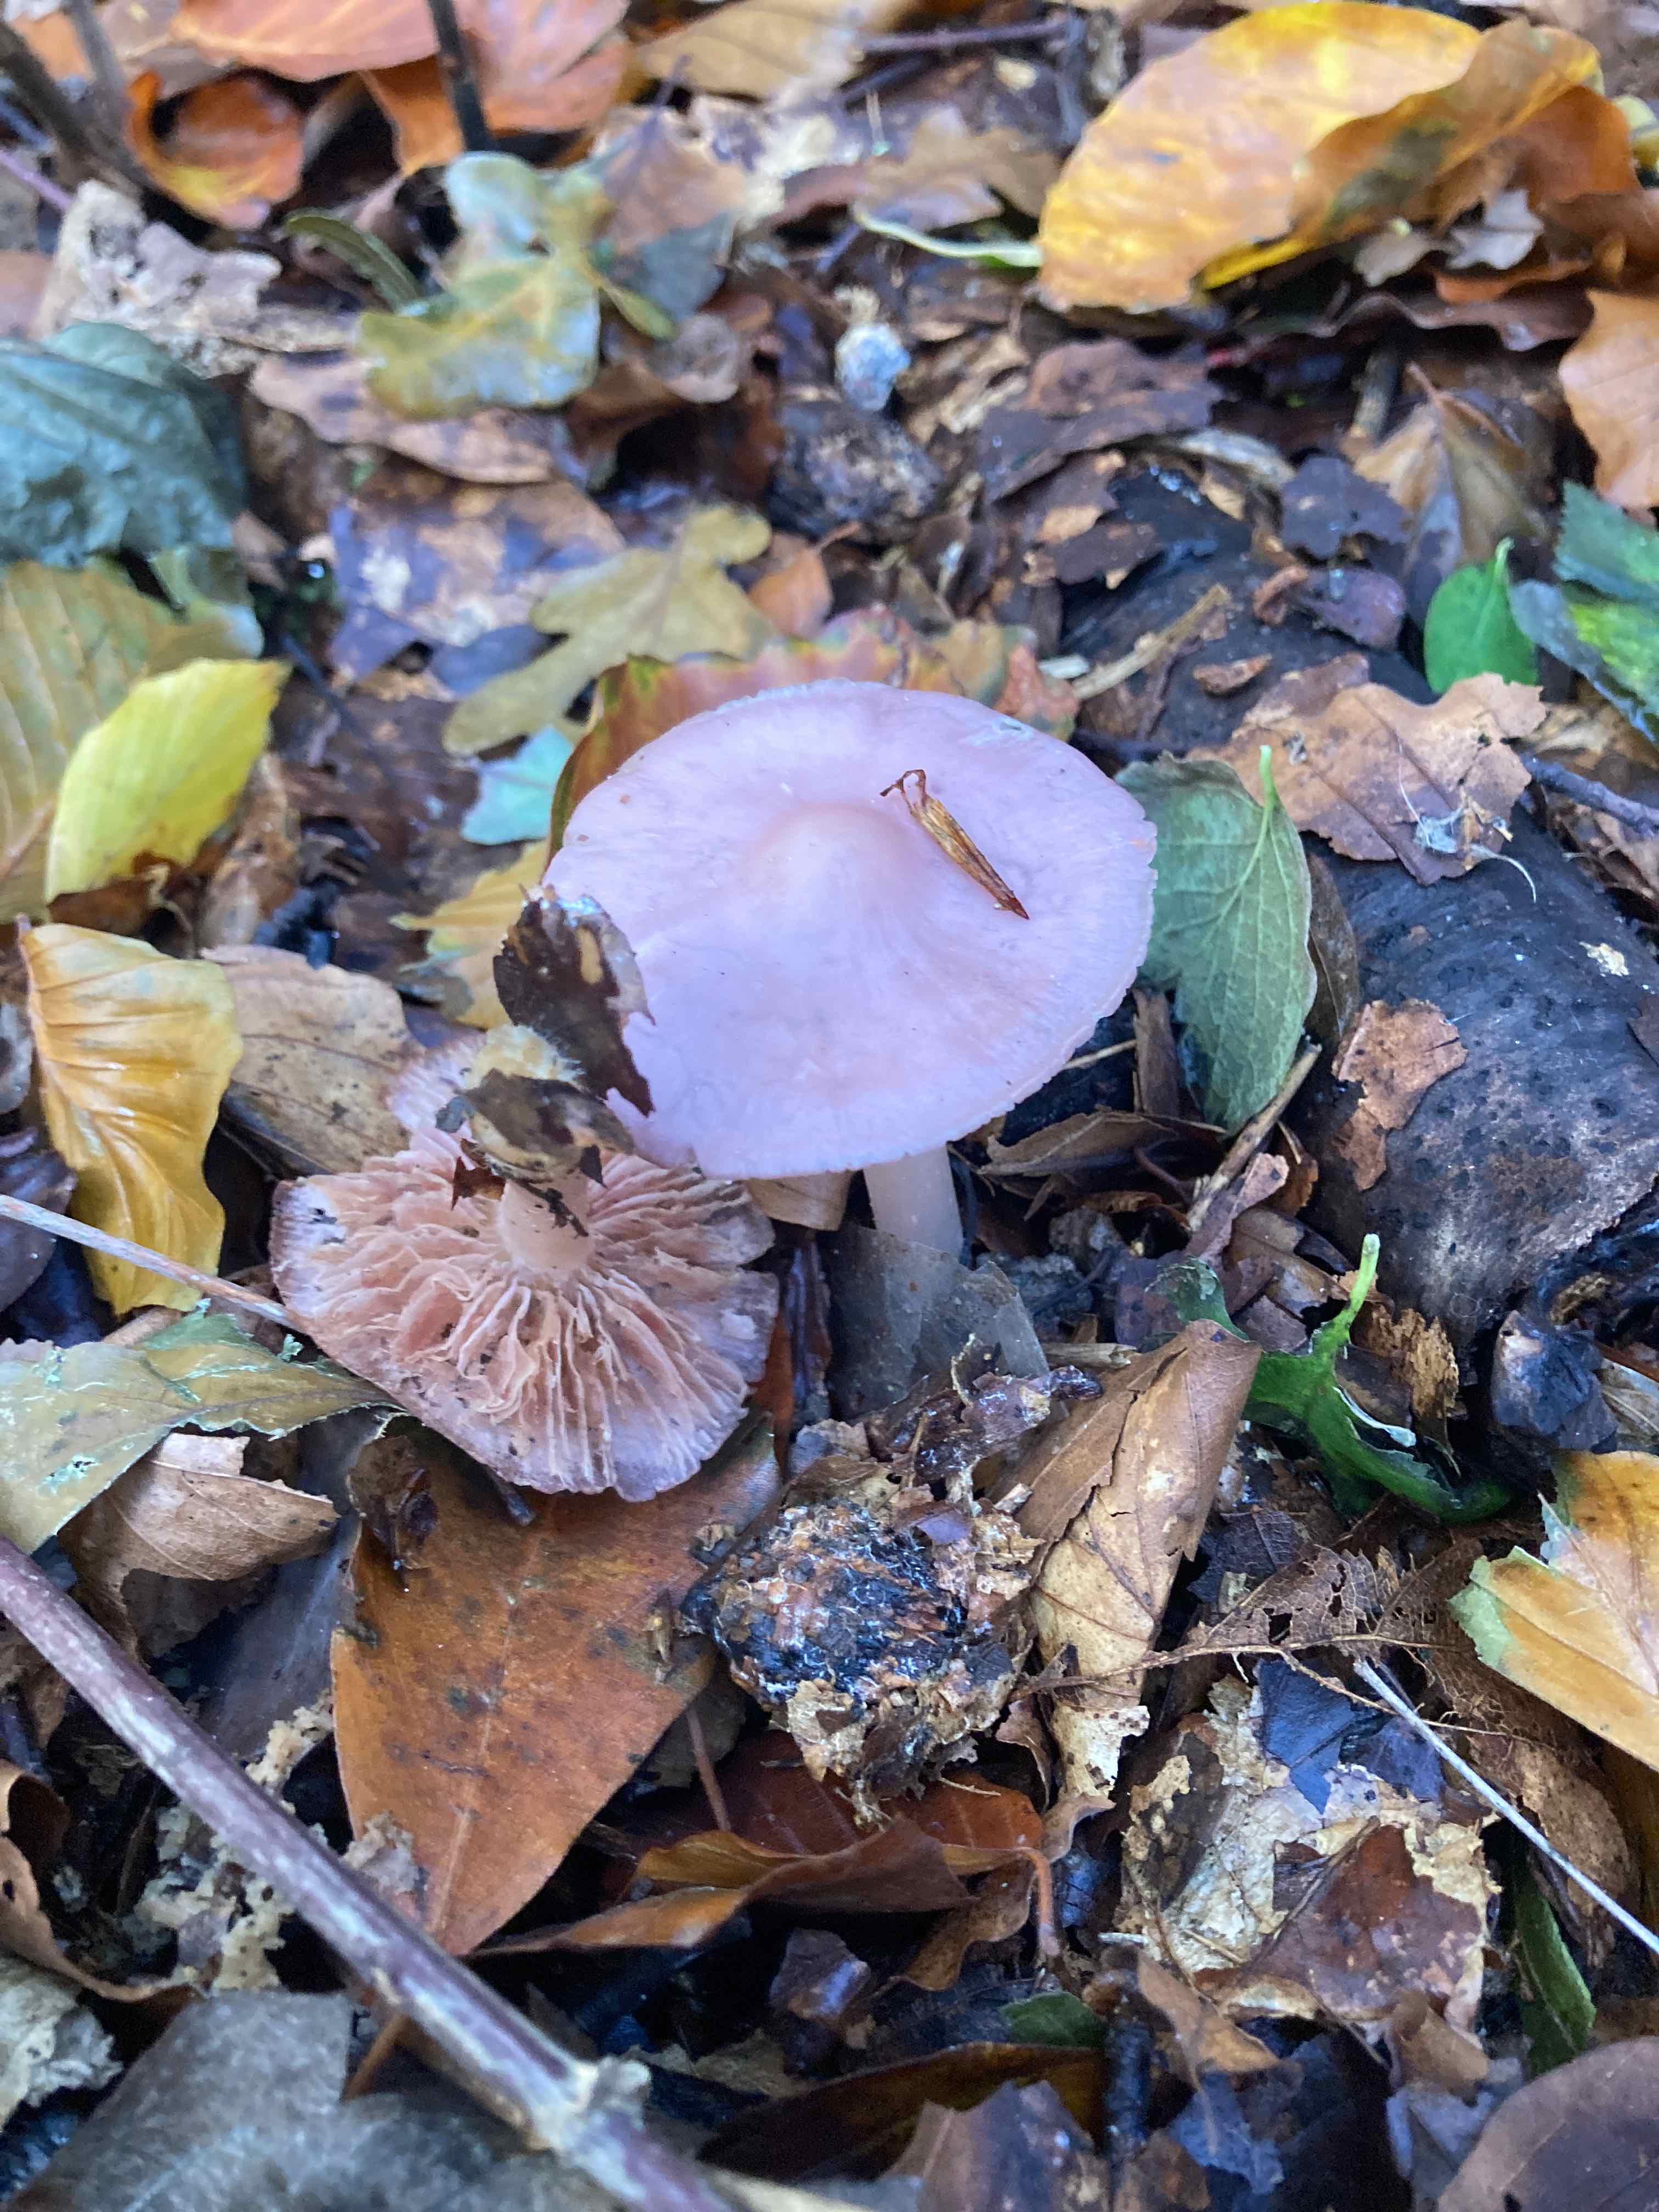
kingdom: Fungi
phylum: Basidiomycota
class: Agaricomycetes
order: Agaricales
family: Mycenaceae
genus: Mycena
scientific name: Mycena rosea
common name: rosa huesvamp
